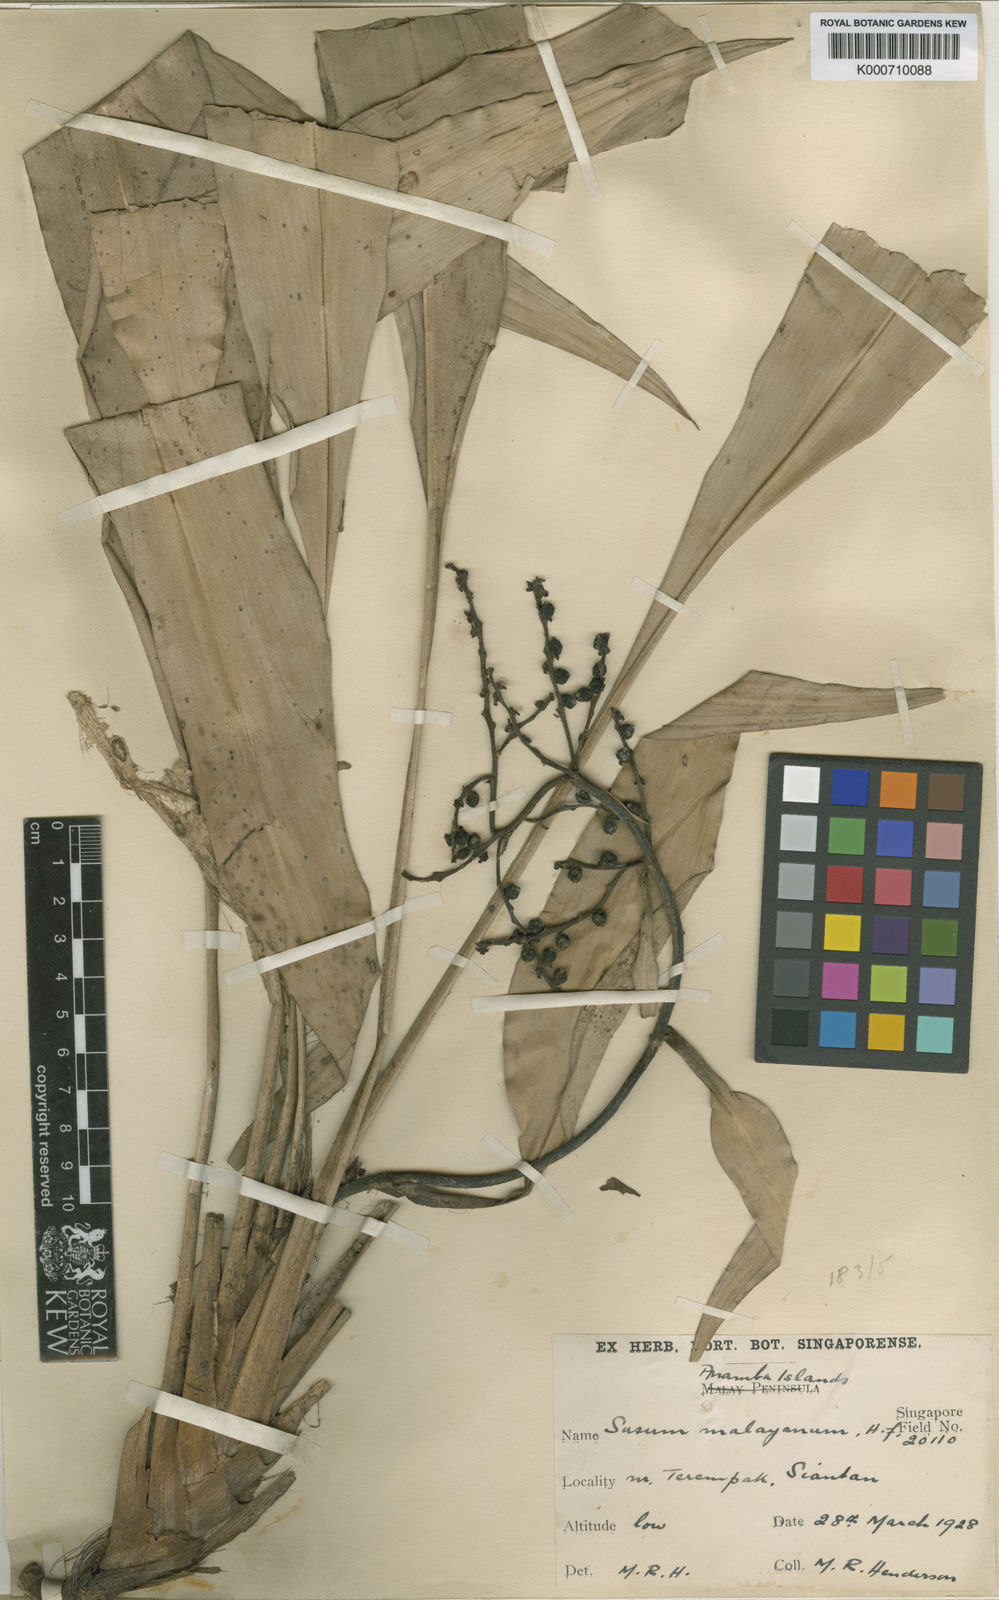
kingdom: Plantae
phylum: Tracheophyta
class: Liliopsida
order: Commelinales
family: Hanguanaceae
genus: Hanguana
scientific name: Hanguana malayana
